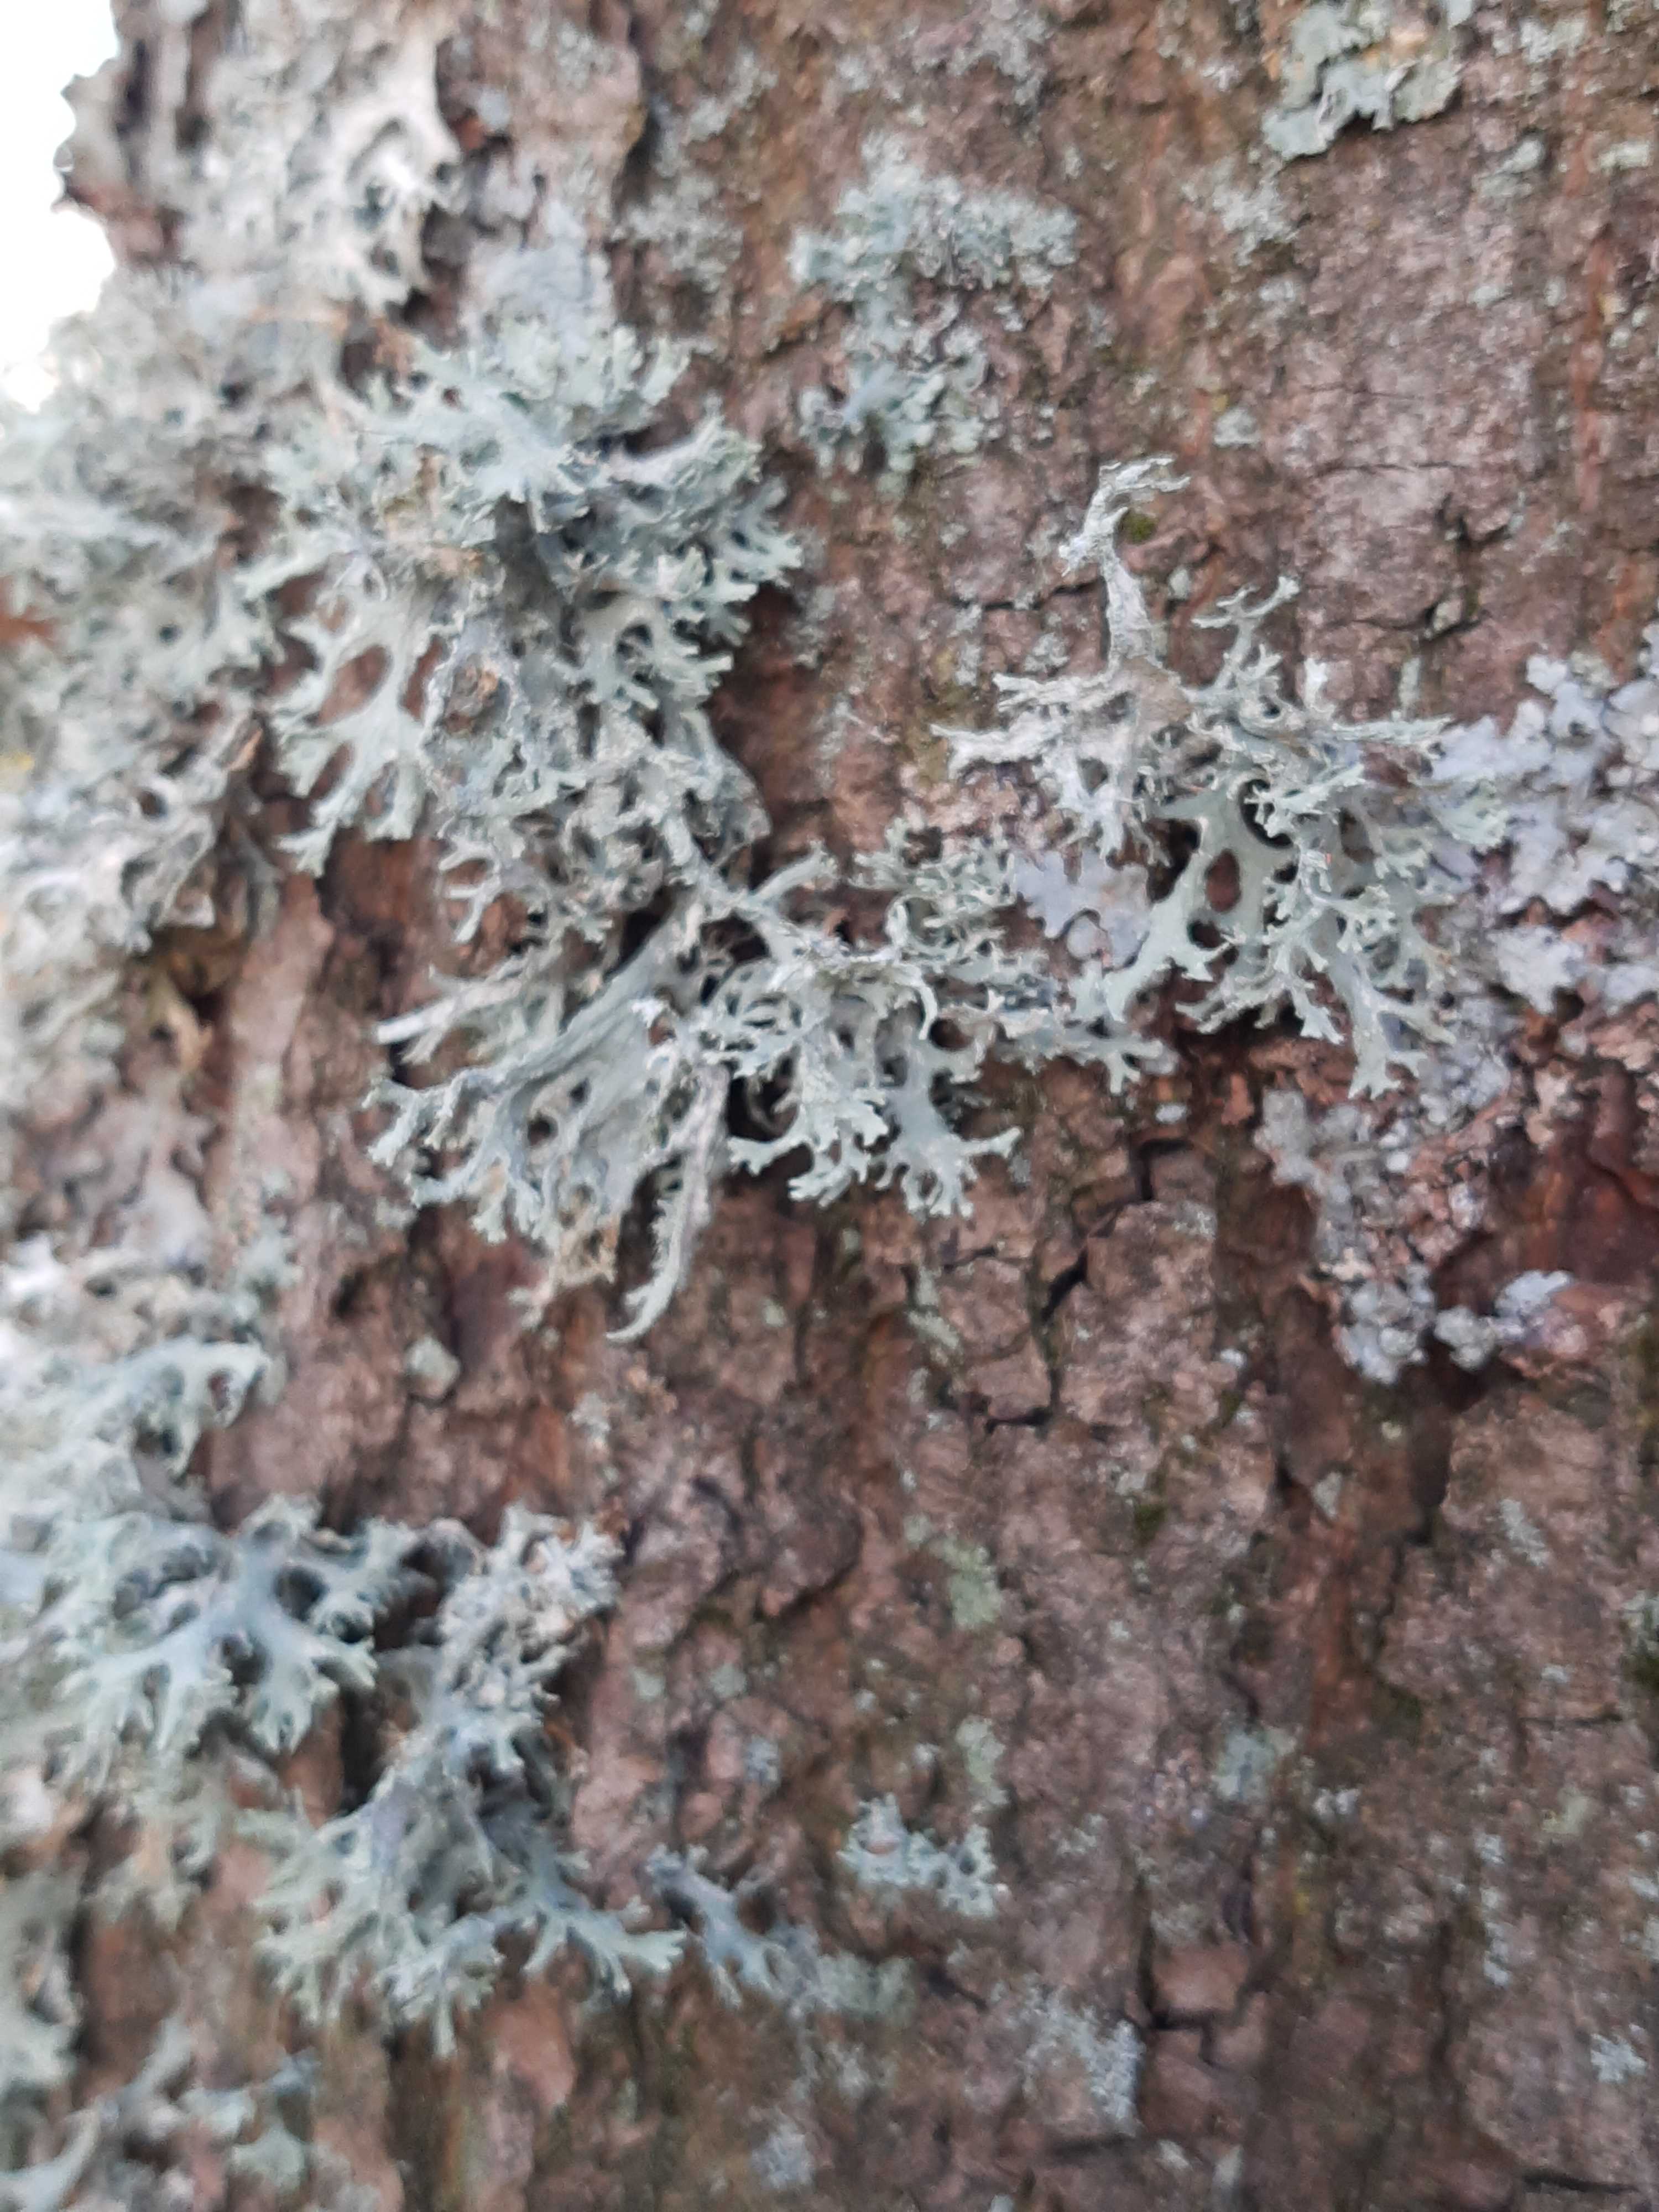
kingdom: Fungi
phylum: Ascomycota
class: Lecanoromycetes
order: Lecanorales
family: Parmeliaceae
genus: Evernia
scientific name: Evernia prunastri
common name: almindelig slåenlav
